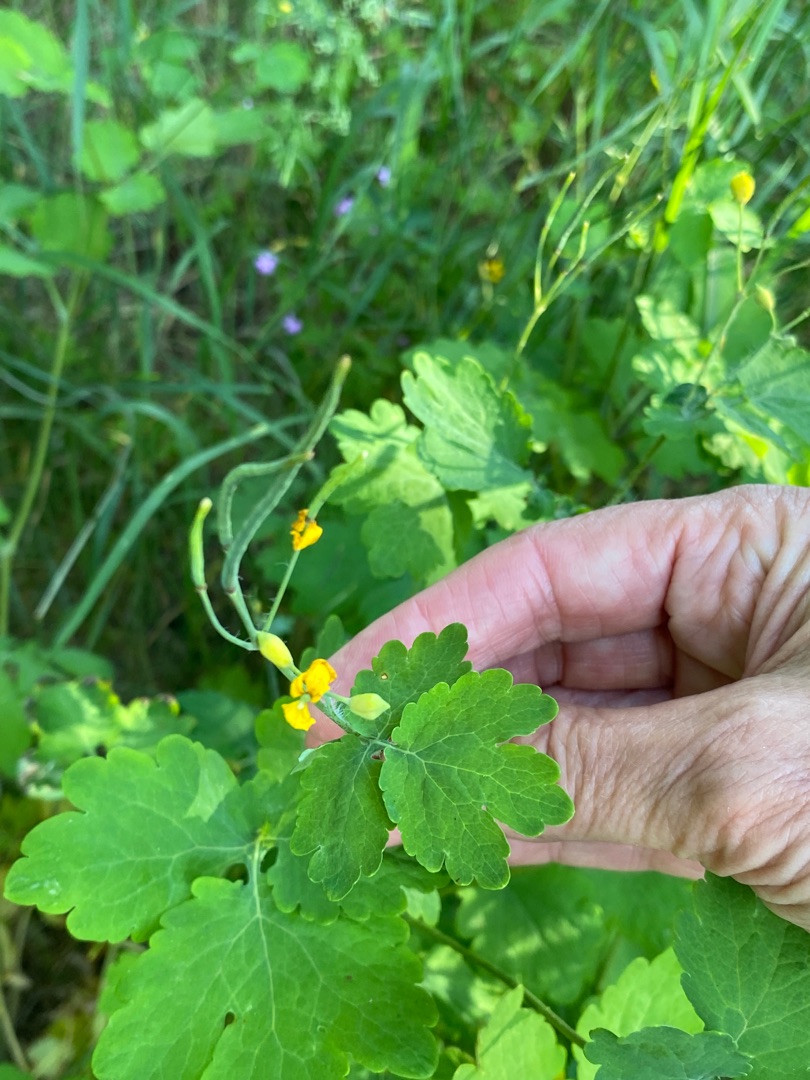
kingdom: Plantae
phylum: Tracheophyta
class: Magnoliopsida
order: Ranunculales
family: Papaveraceae
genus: Chelidonium
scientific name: Chelidonium majus
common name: Svaleurt
